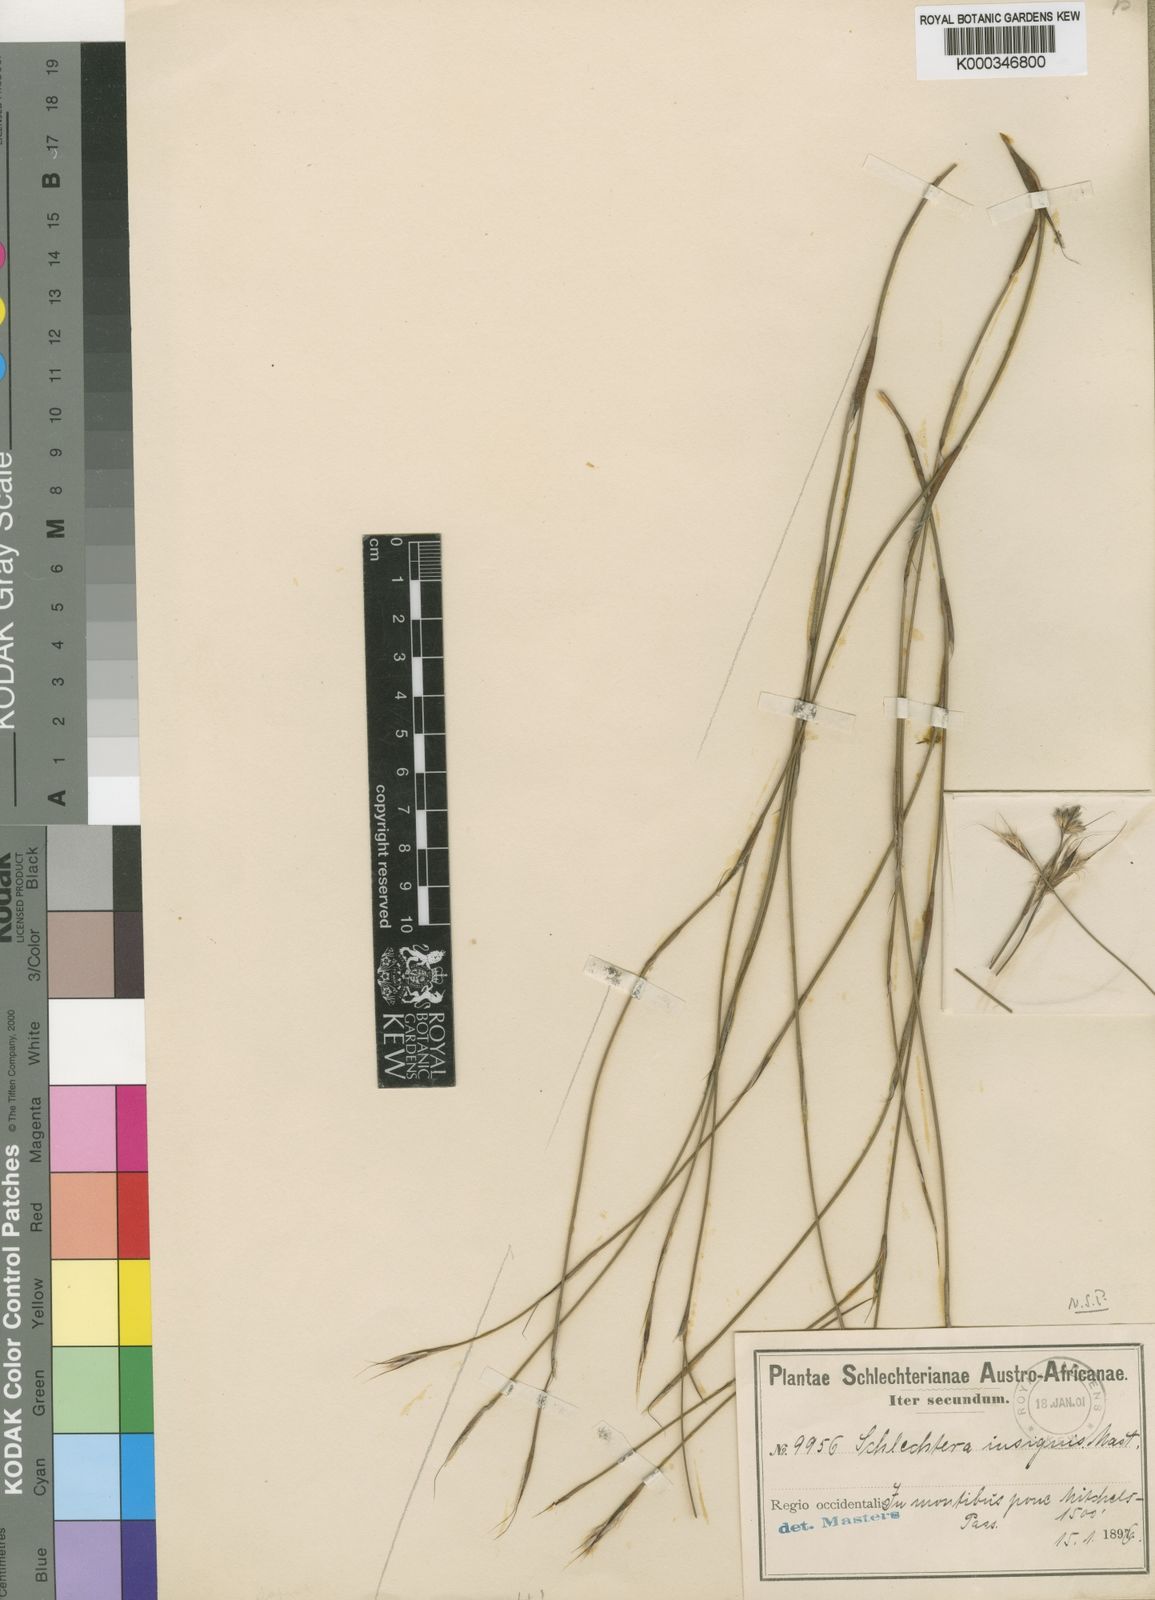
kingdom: Plantae
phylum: Tracheophyta
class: Liliopsida
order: Poales
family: Restionaceae
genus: Anthochortus
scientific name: Anthochortus insignis
